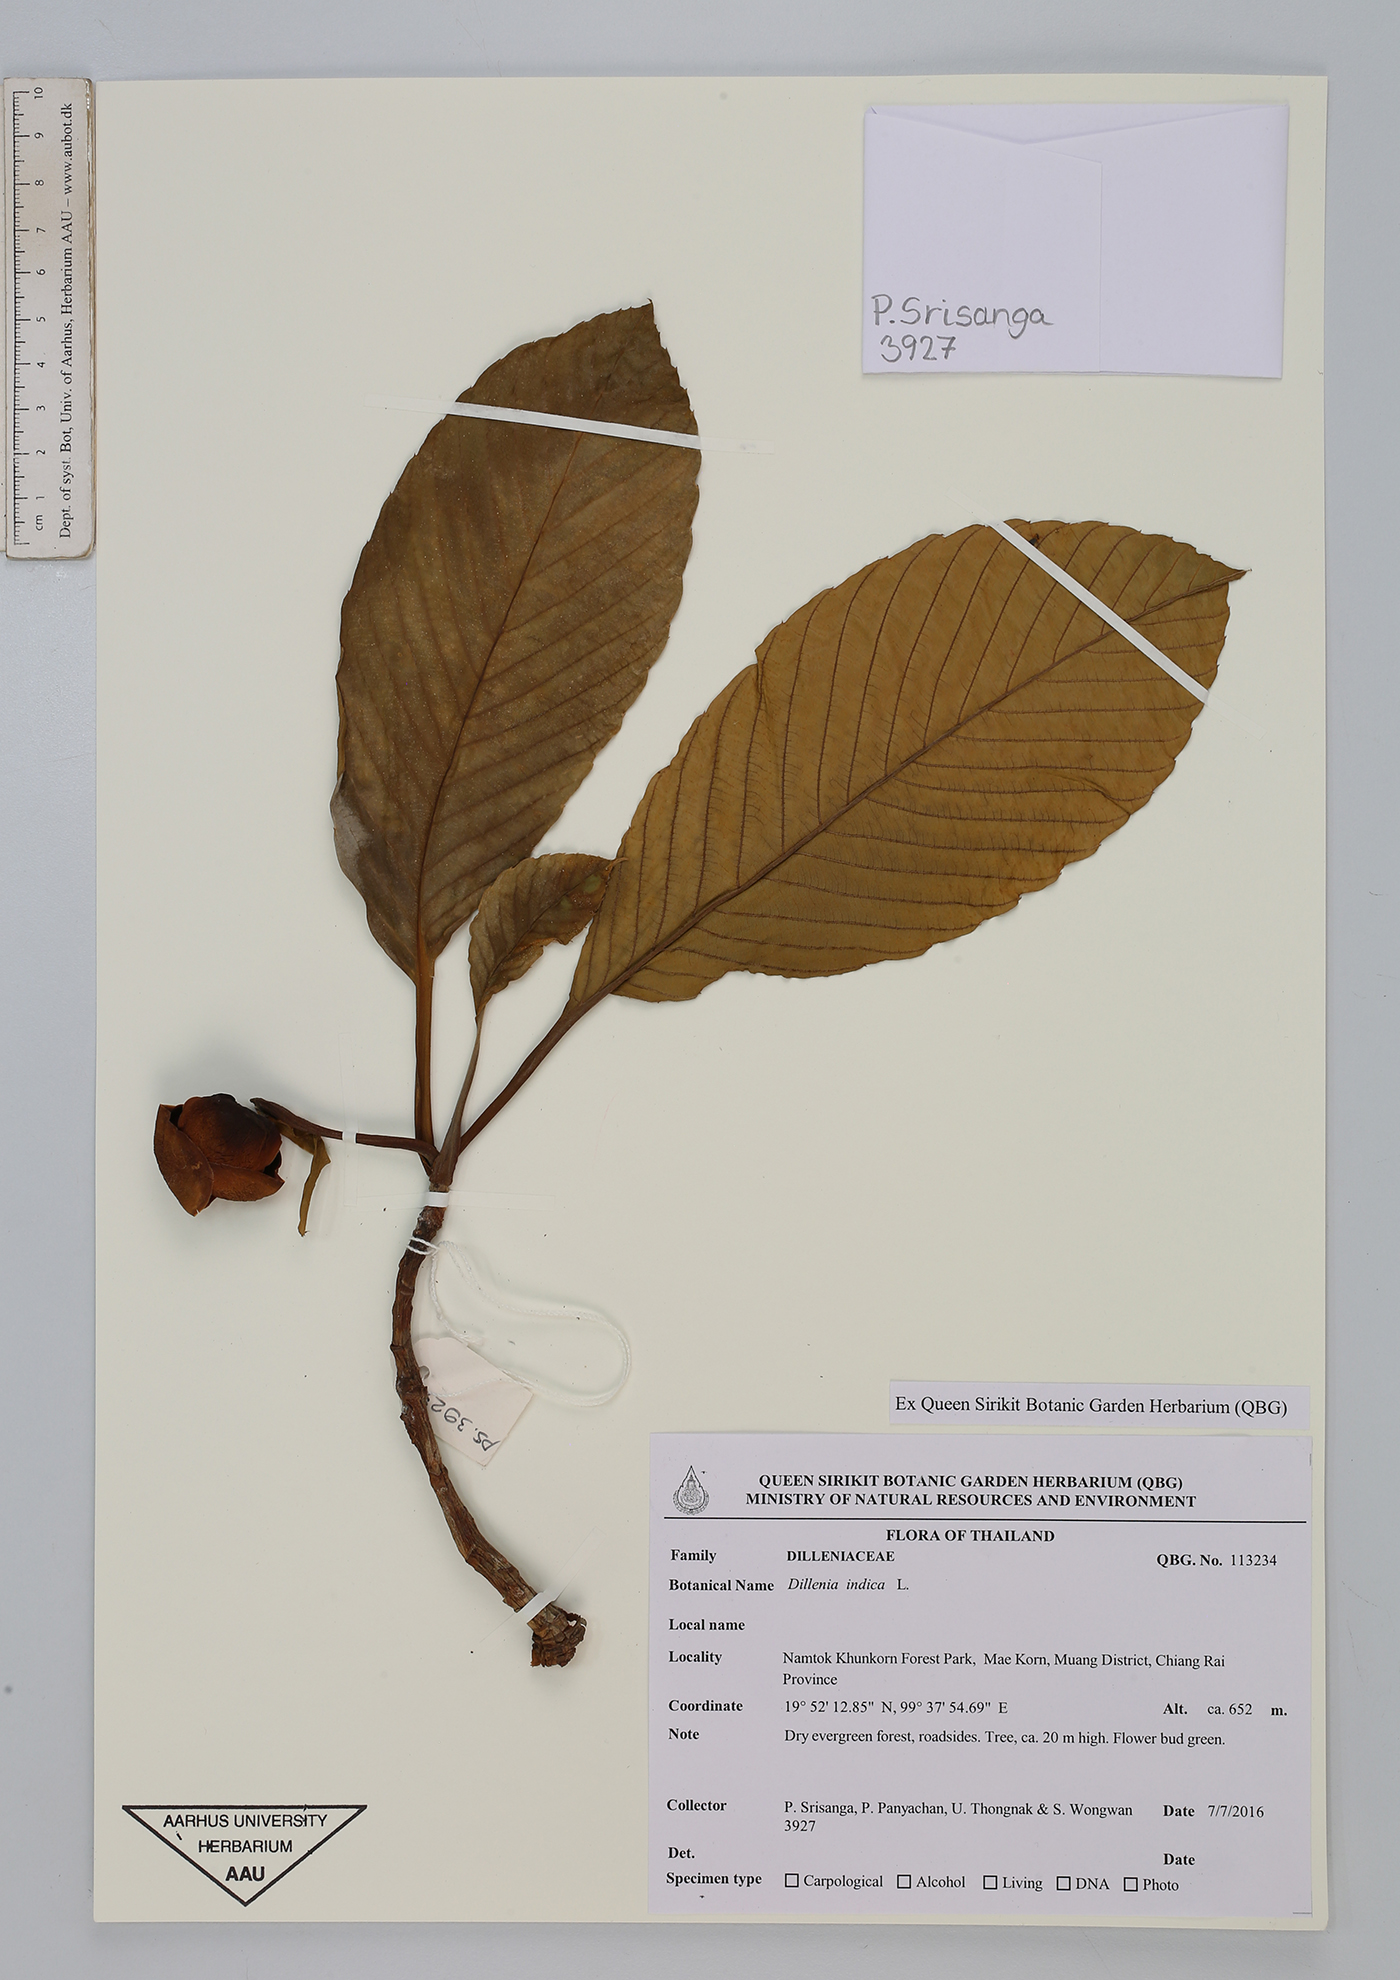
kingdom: Plantae
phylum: Tracheophyta
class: Magnoliopsida
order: Dilleniales
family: Dilleniaceae
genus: Dillenia
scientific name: Dillenia indica
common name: Elephant apple
